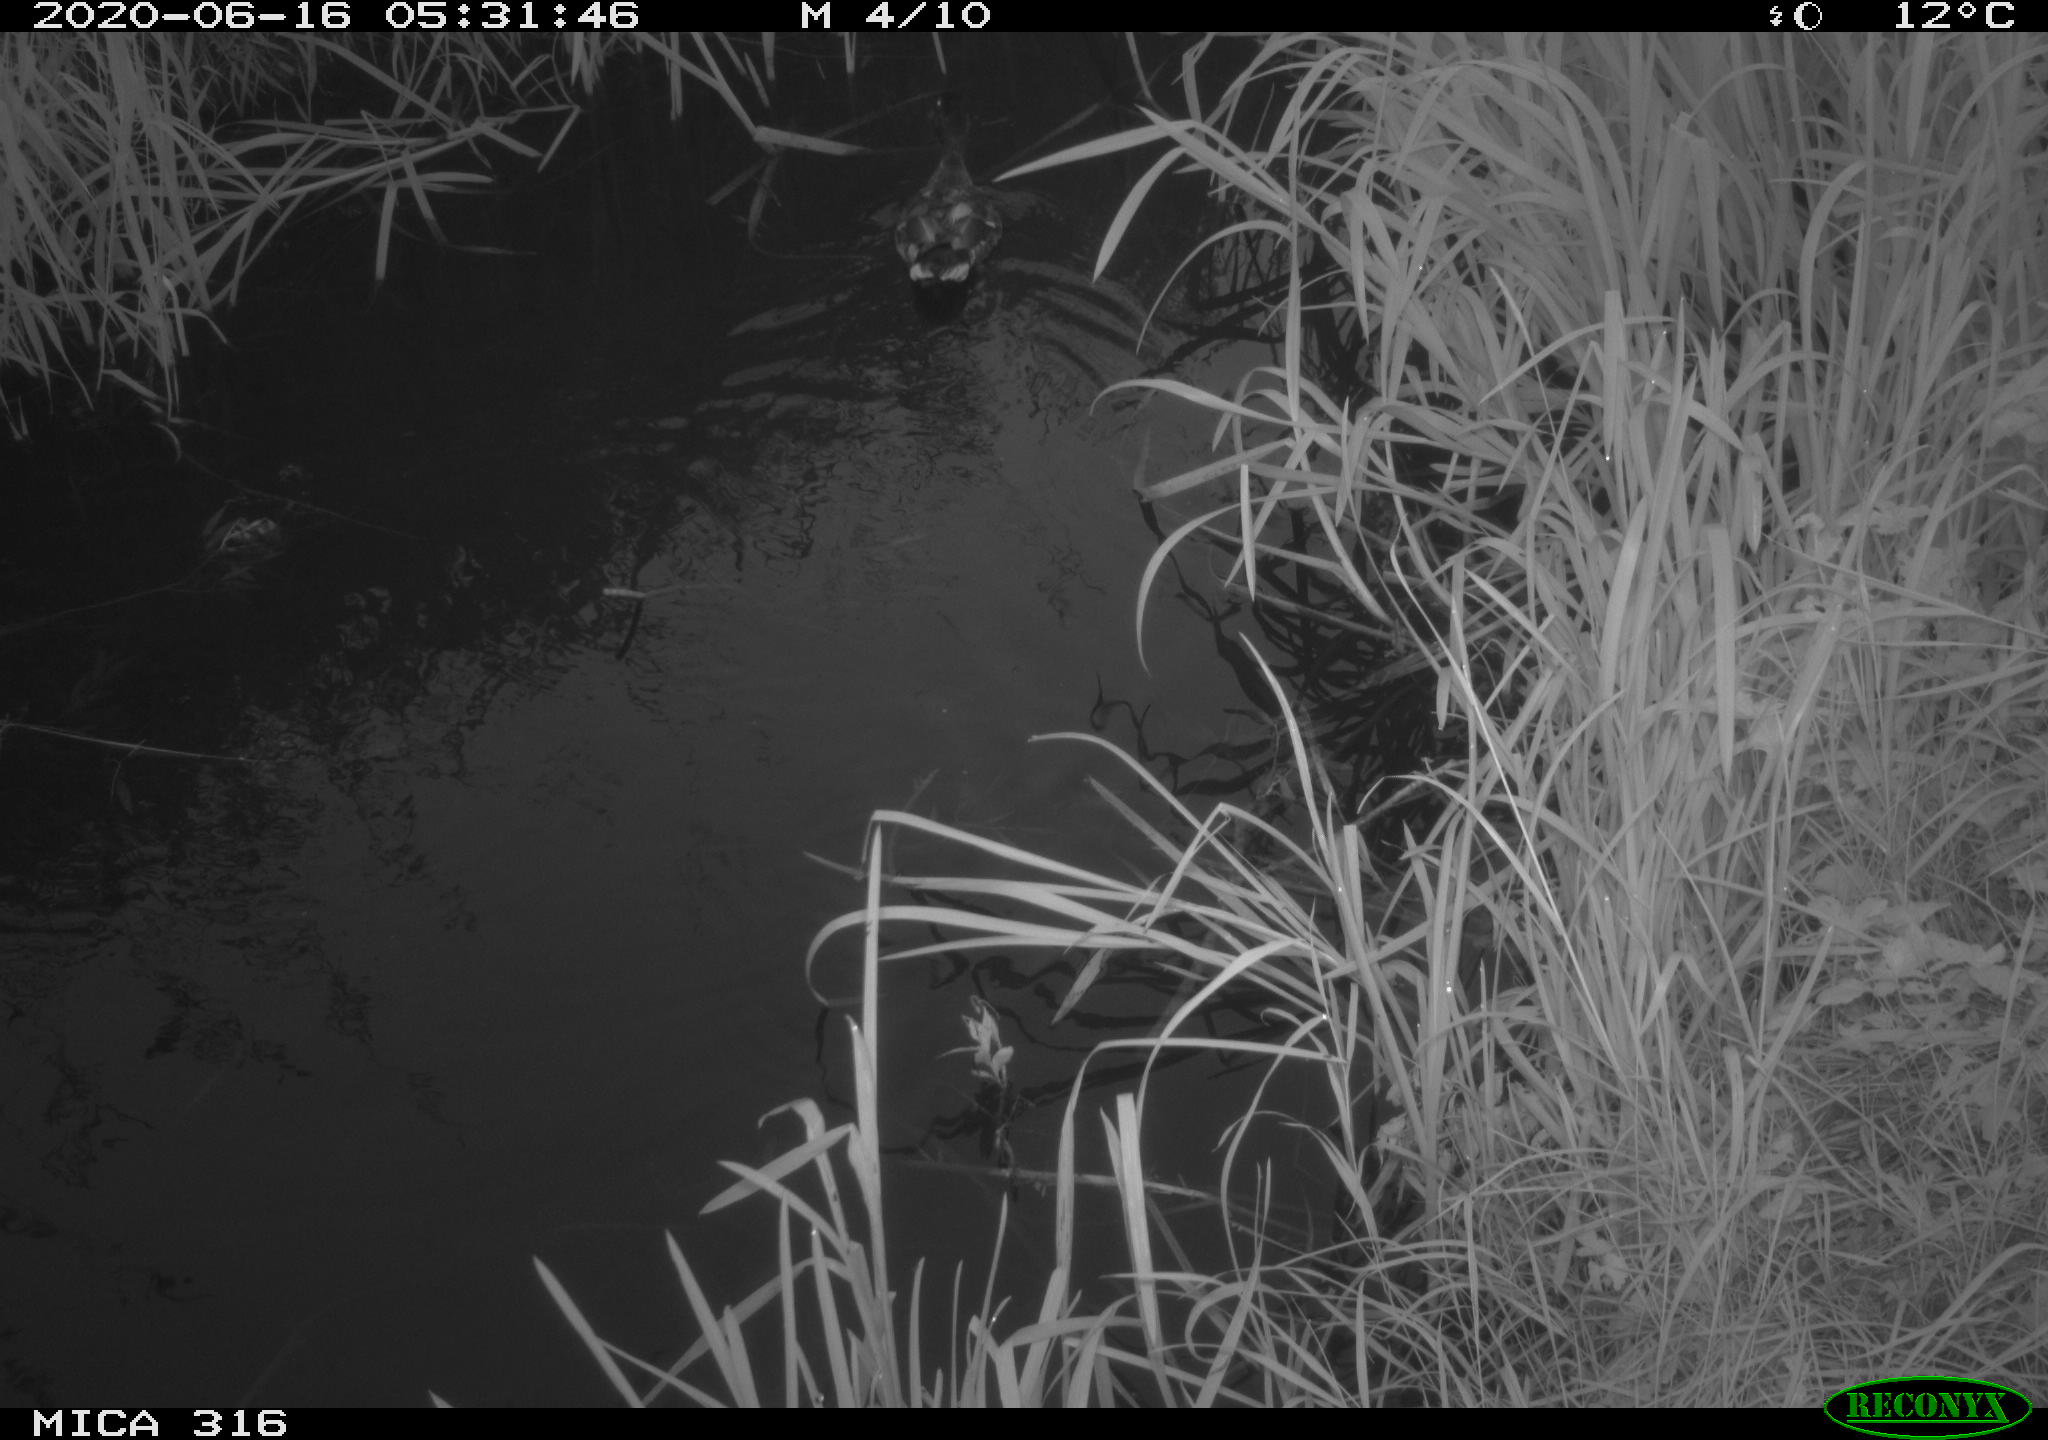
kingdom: Animalia
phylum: Chordata
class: Aves
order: Anseriformes
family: Anatidae
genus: Anas
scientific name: Anas platyrhynchos
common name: Mallard
